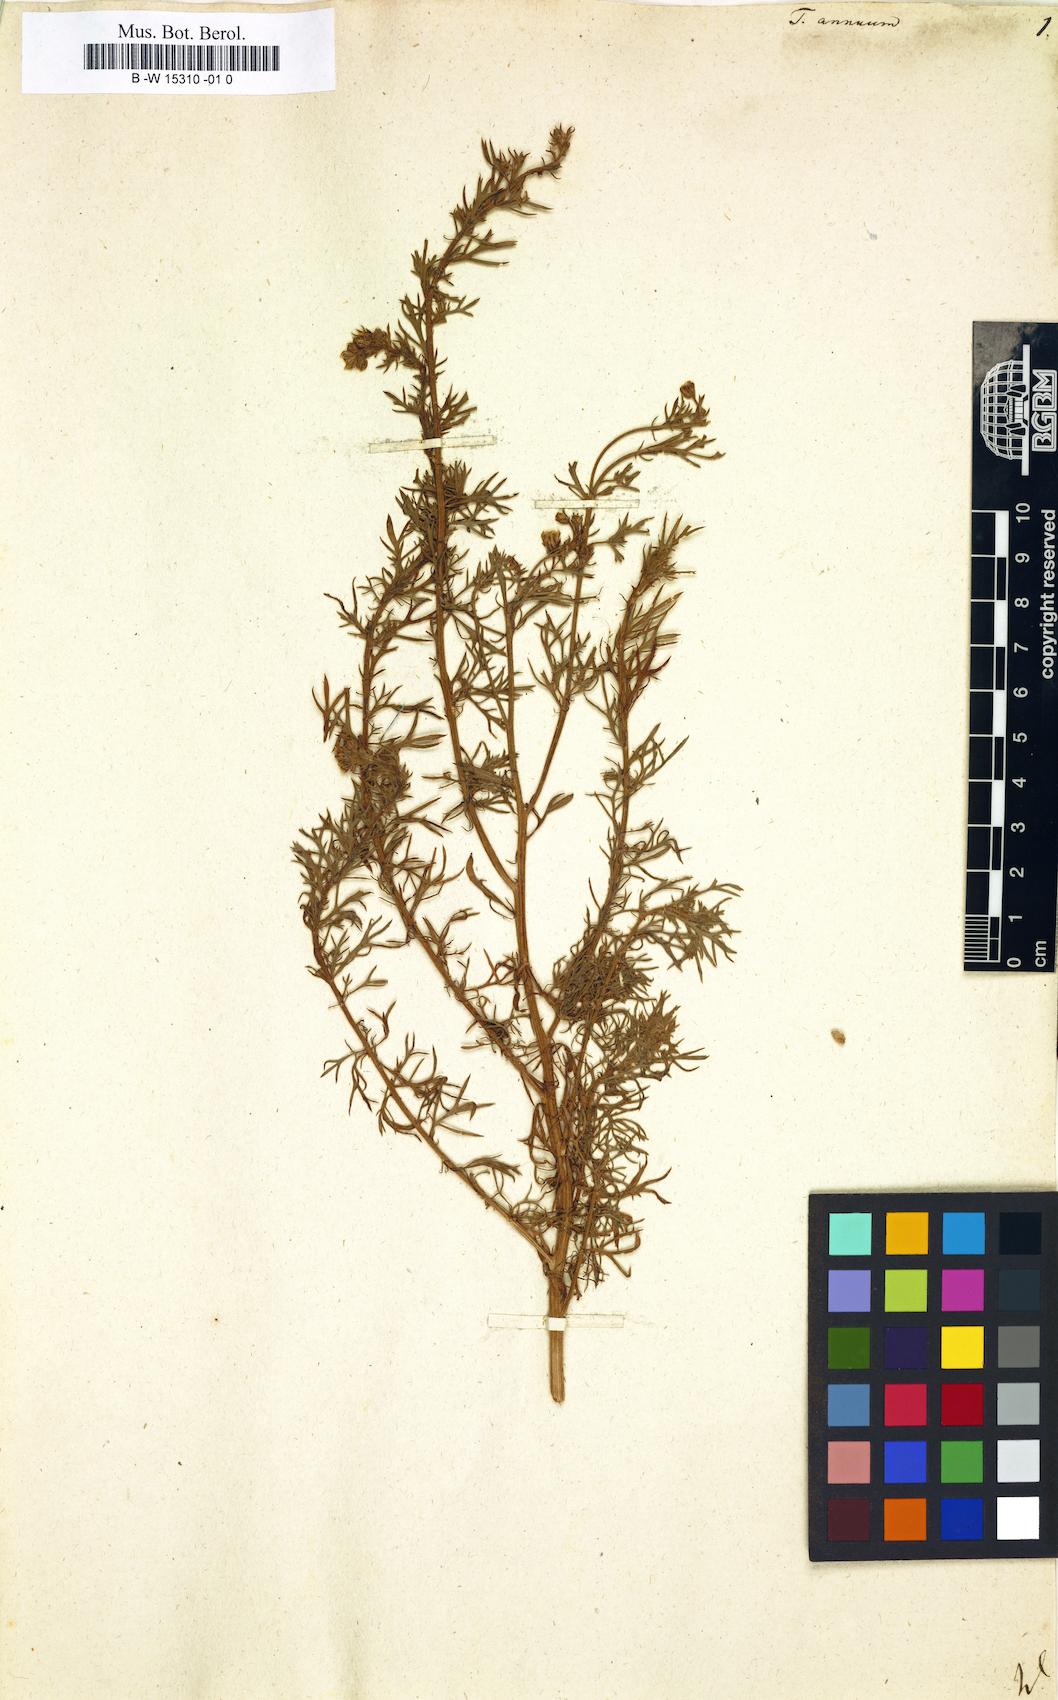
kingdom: Plantae
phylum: Tracheophyta
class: Magnoliopsida
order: Asterales
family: Asteraceae
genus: Vogtia
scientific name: Vogtia annua
